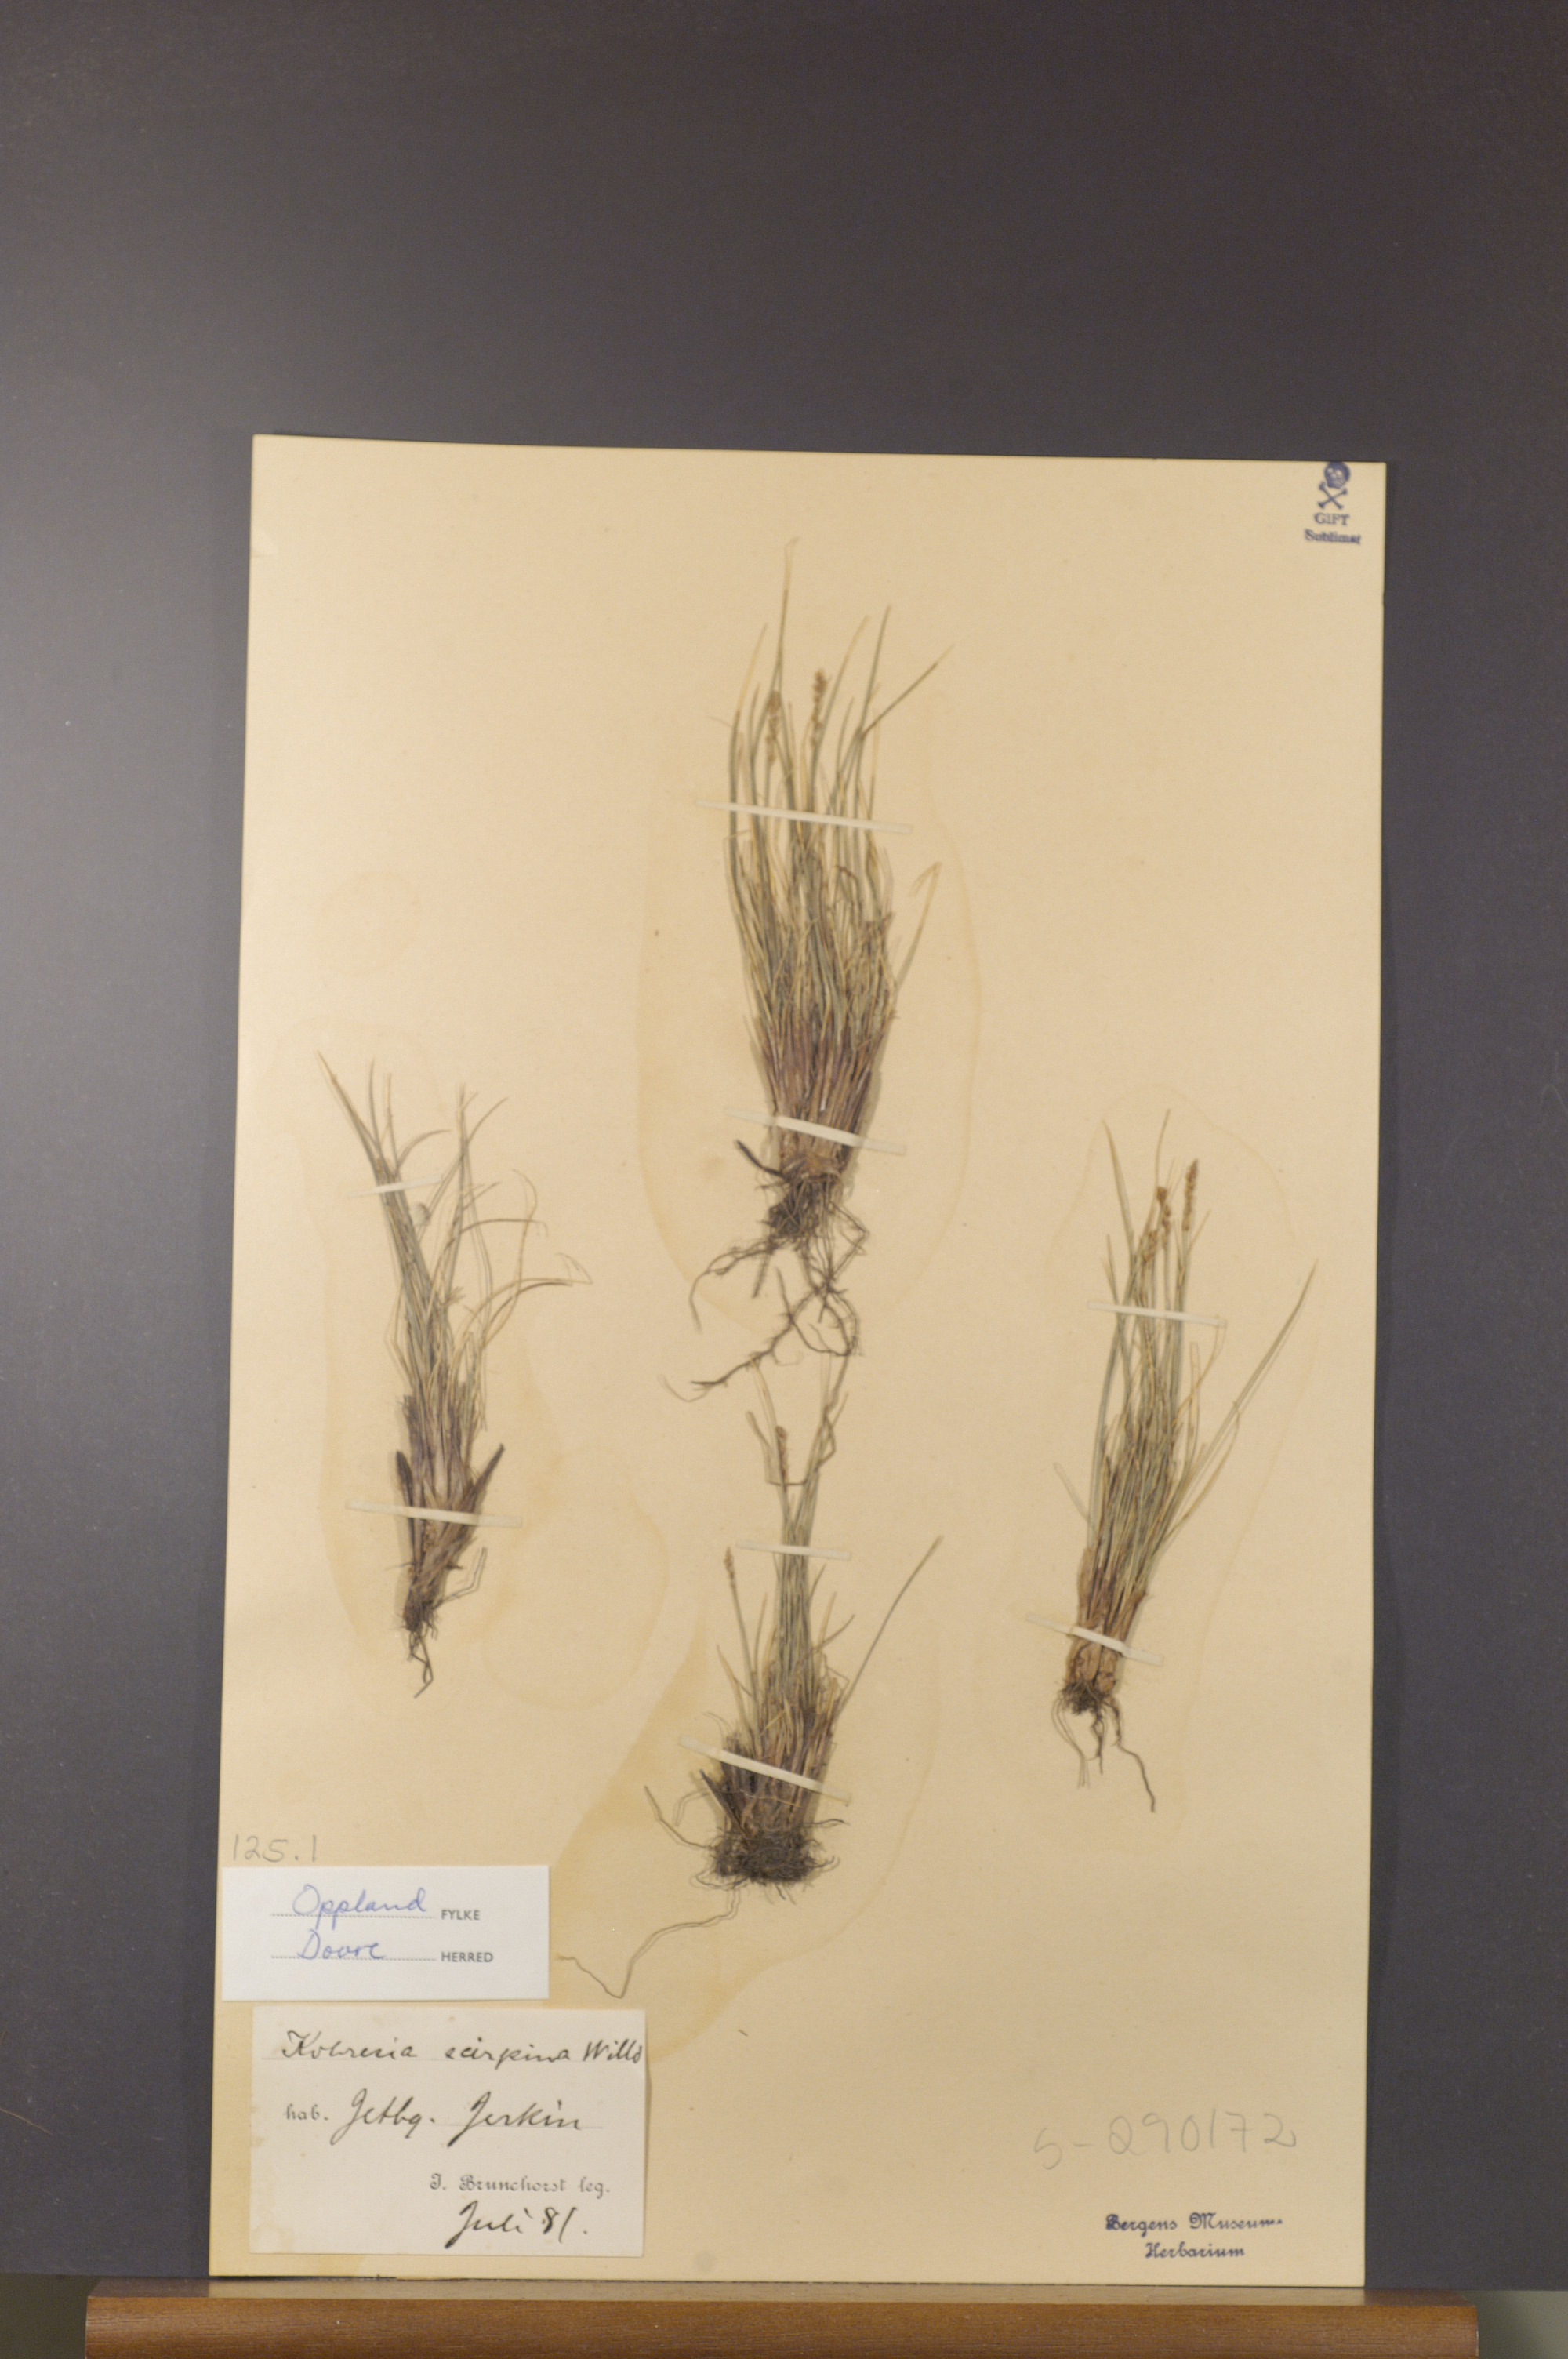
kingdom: Plantae
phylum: Tracheophyta
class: Liliopsida
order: Poales
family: Cyperaceae
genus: Carex
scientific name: Carex myosuroides
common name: Bellard's bog sedge
